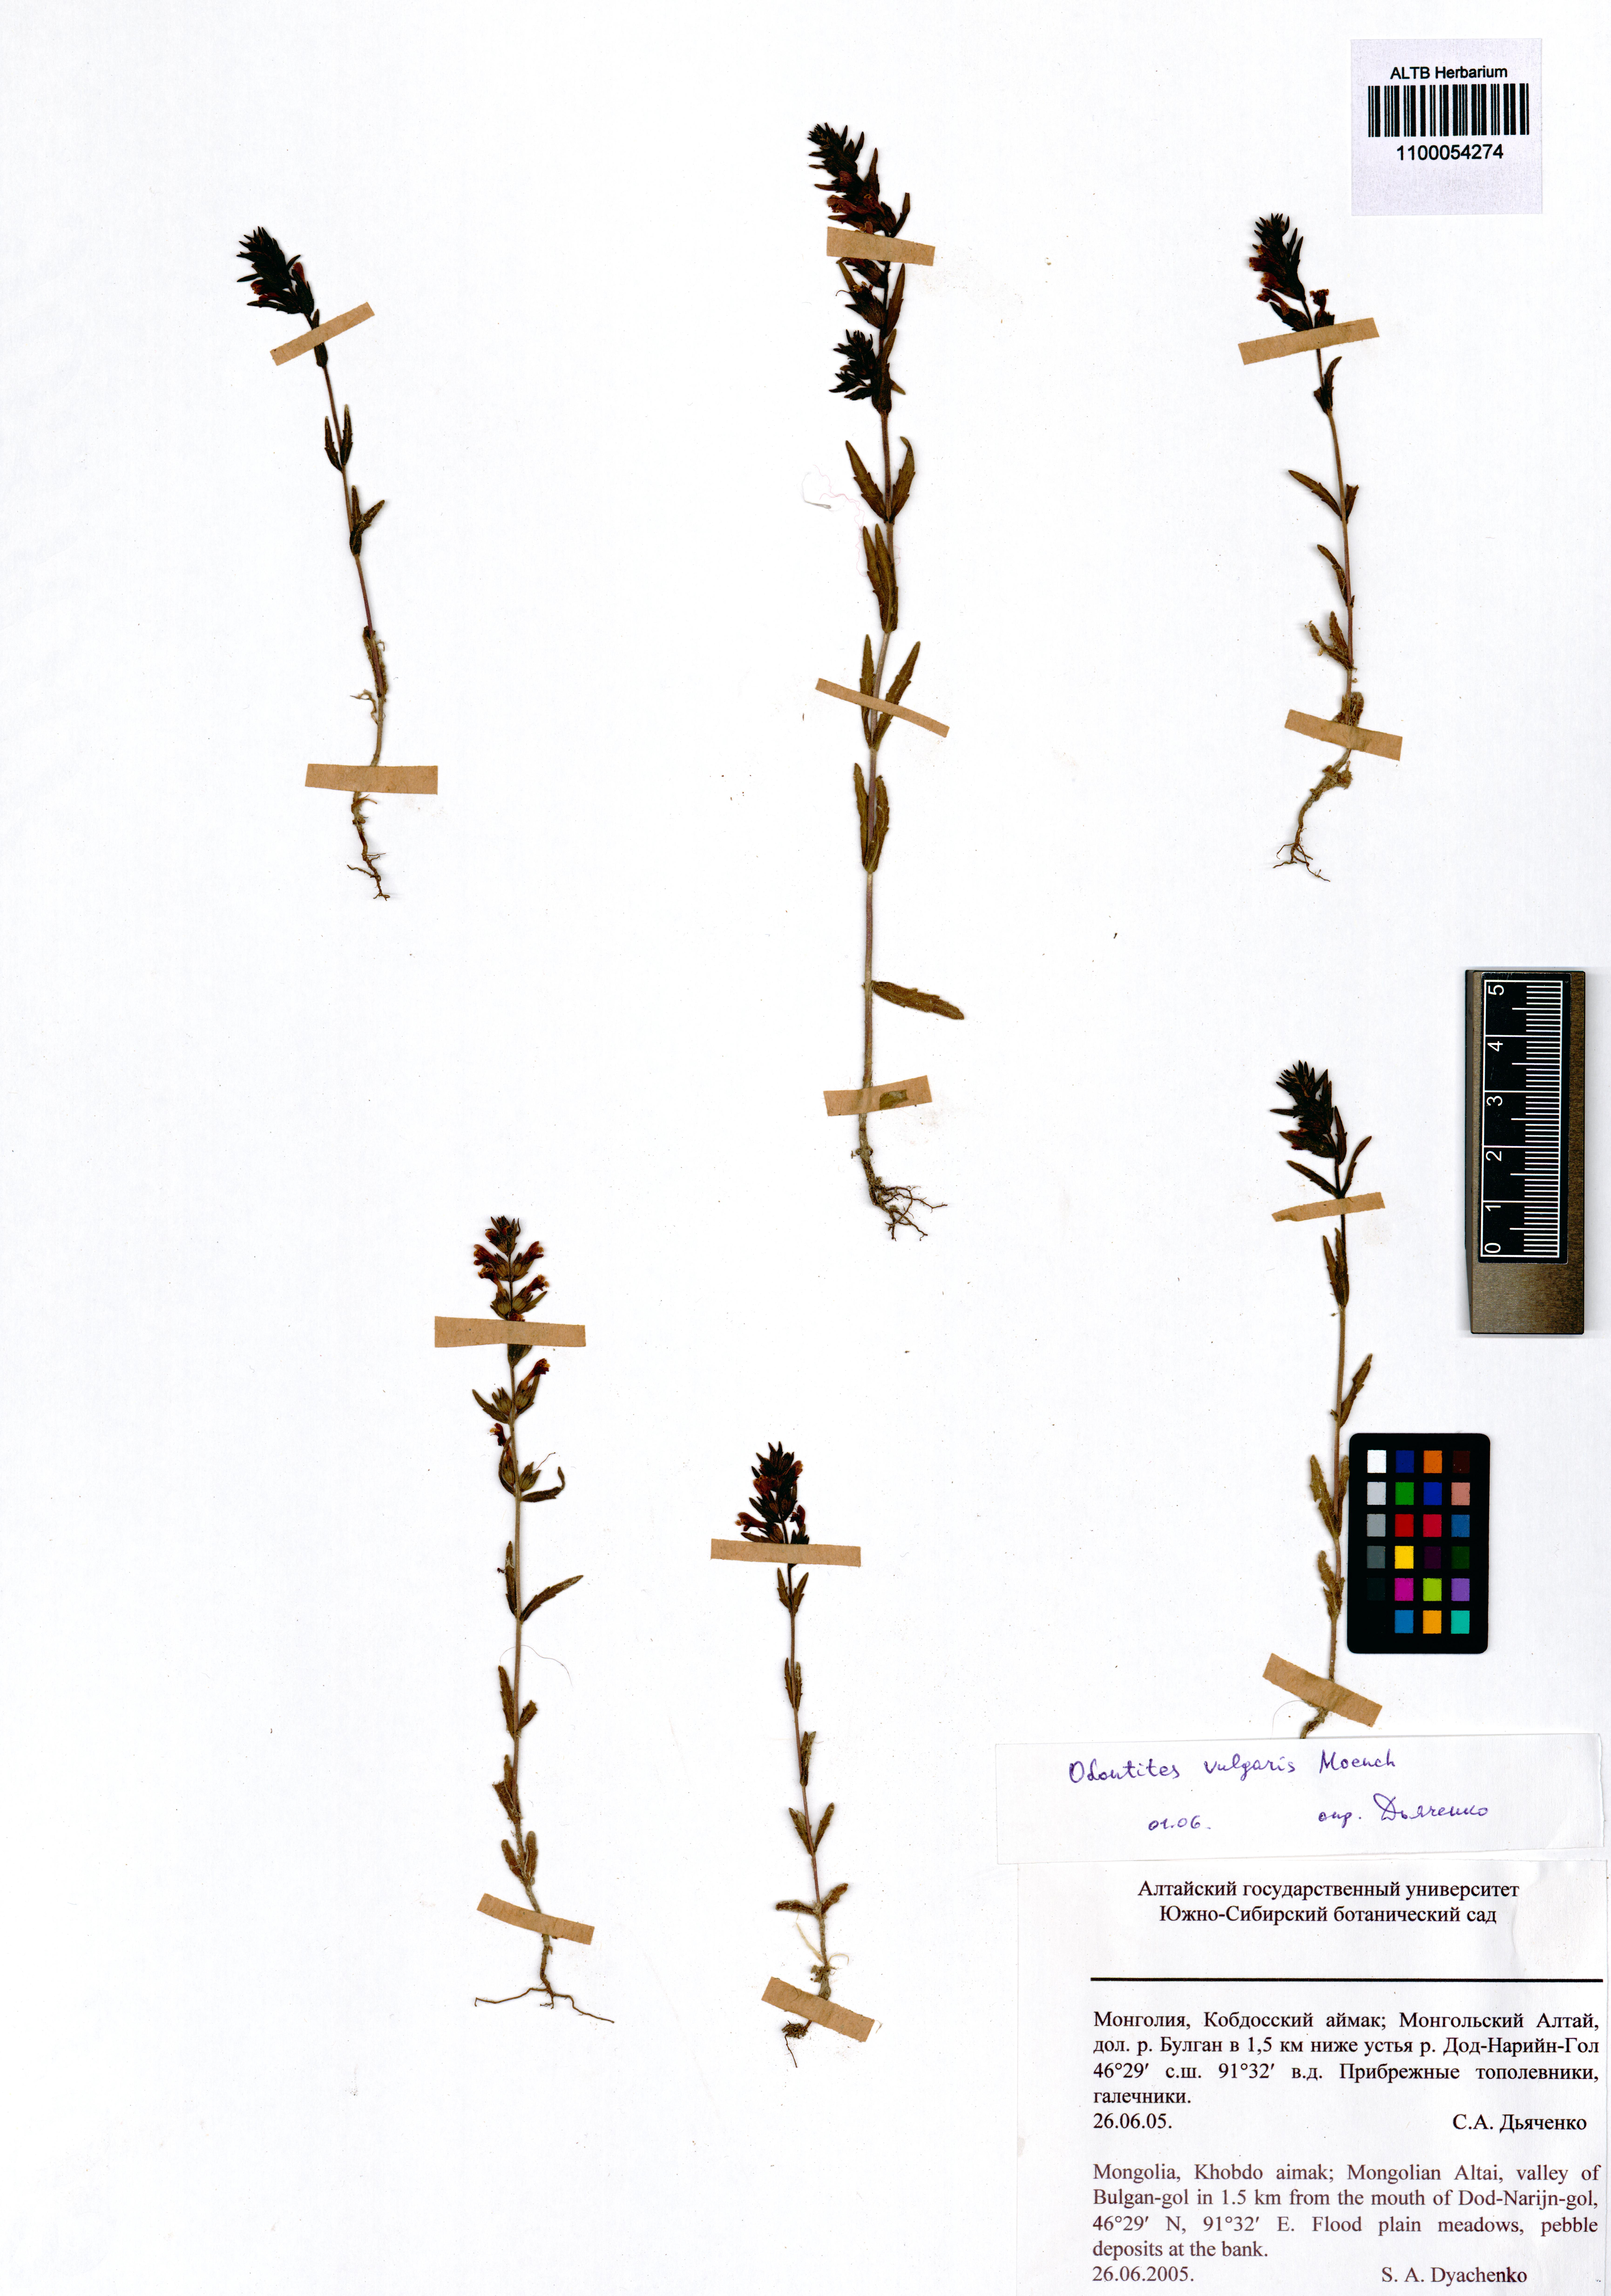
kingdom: Plantae
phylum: Tracheophyta
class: Magnoliopsida
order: Lamiales
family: Orobanchaceae
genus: Odontites
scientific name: Odontites vulgaris
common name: Broomrape
